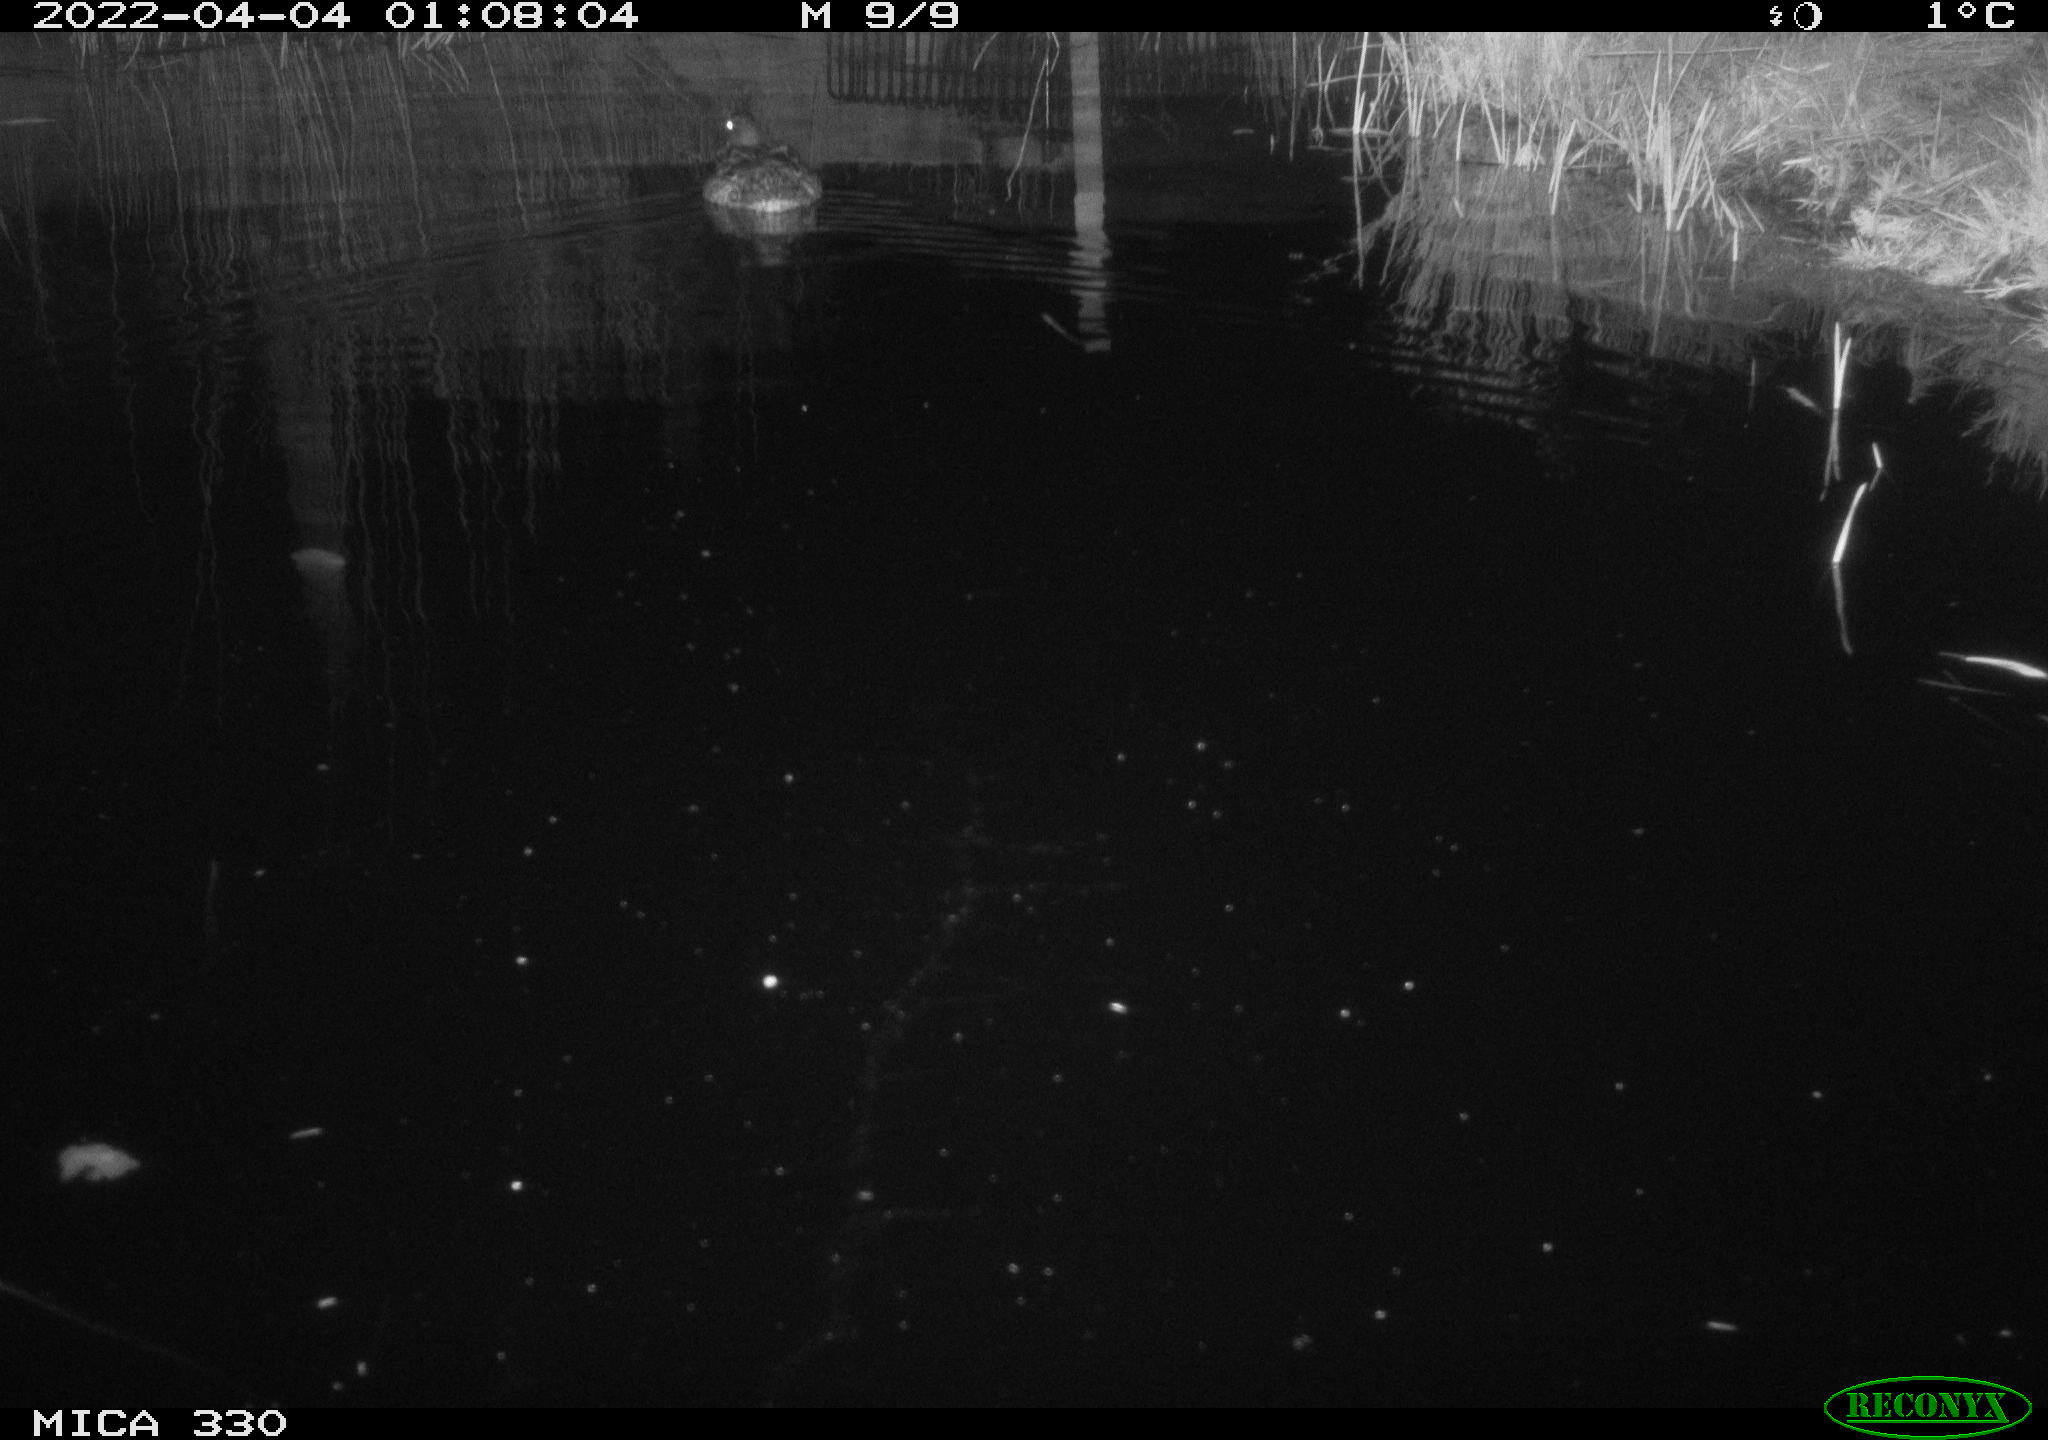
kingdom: Animalia
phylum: Chordata
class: Aves
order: Anseriformes
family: Anatidae
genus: Anas
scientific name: Anas platyrhynchos
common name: Mallard
